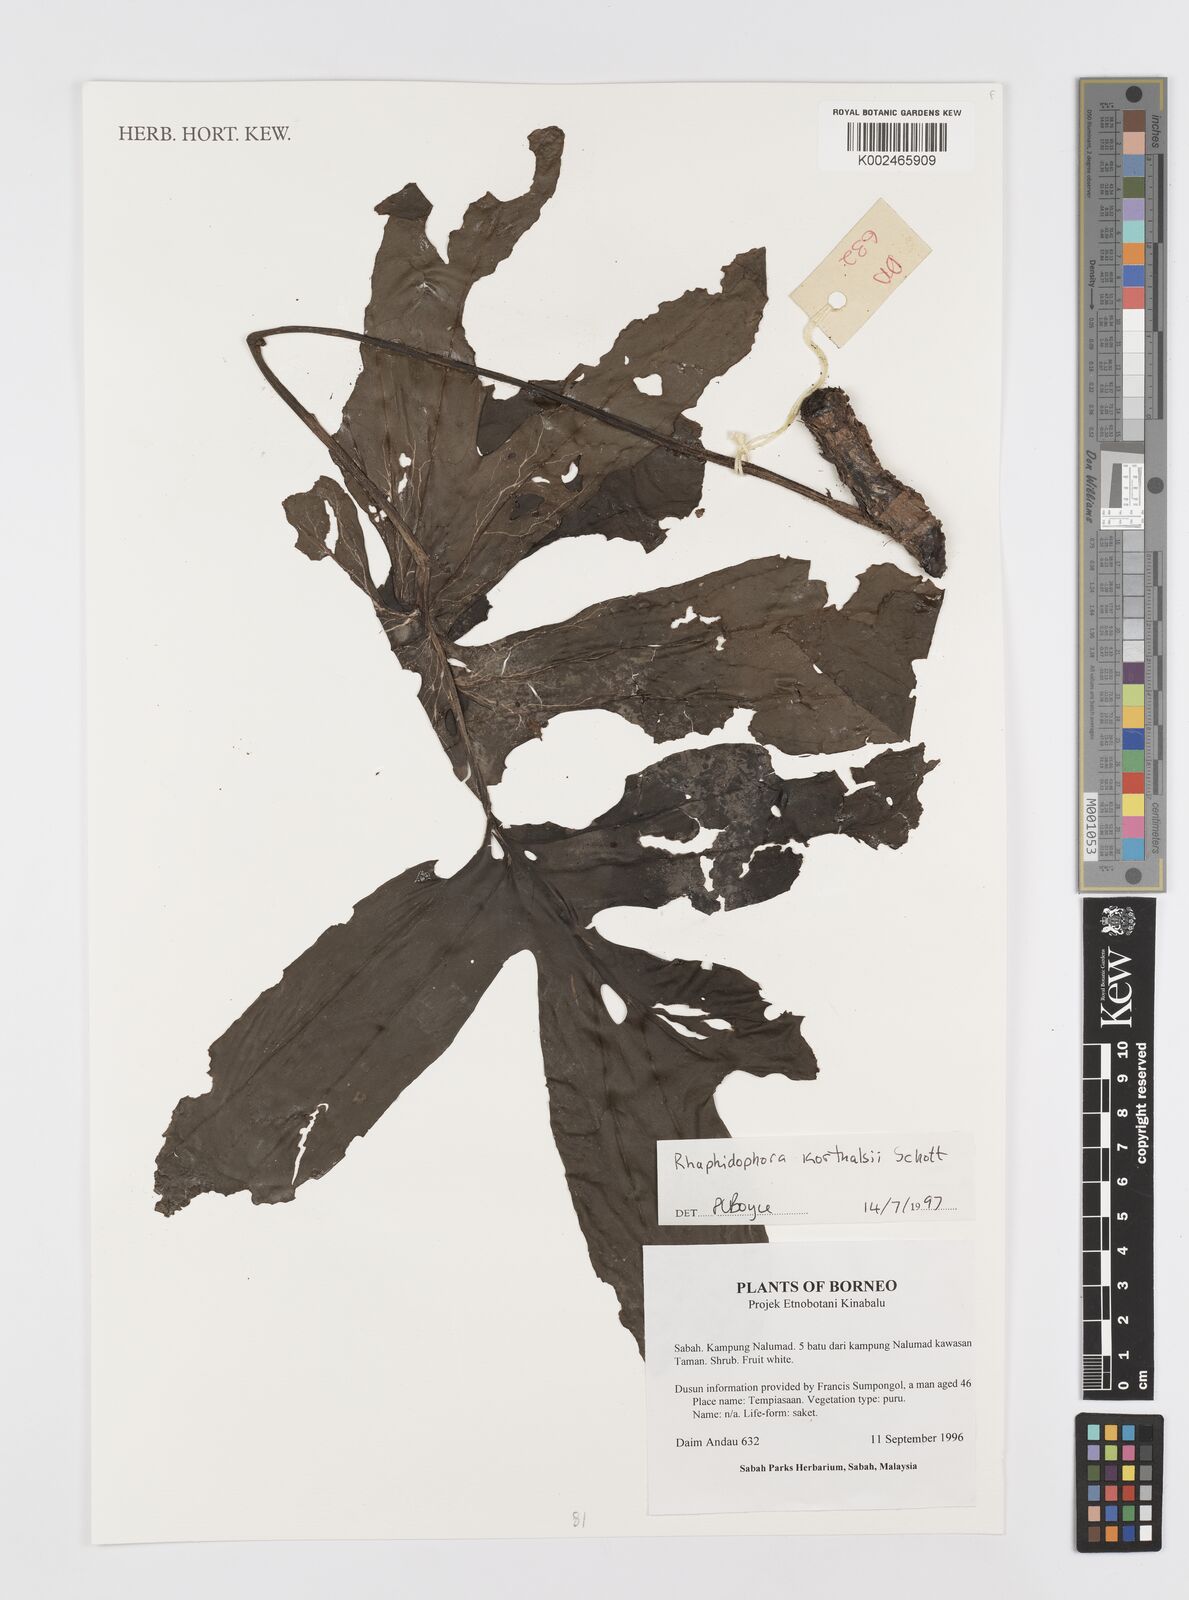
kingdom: Plantae
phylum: Tracheophyta
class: Liliopsida
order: Alismatales
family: Araceae
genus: Rhaphidophora
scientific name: Rhaphidophora korthalsii
